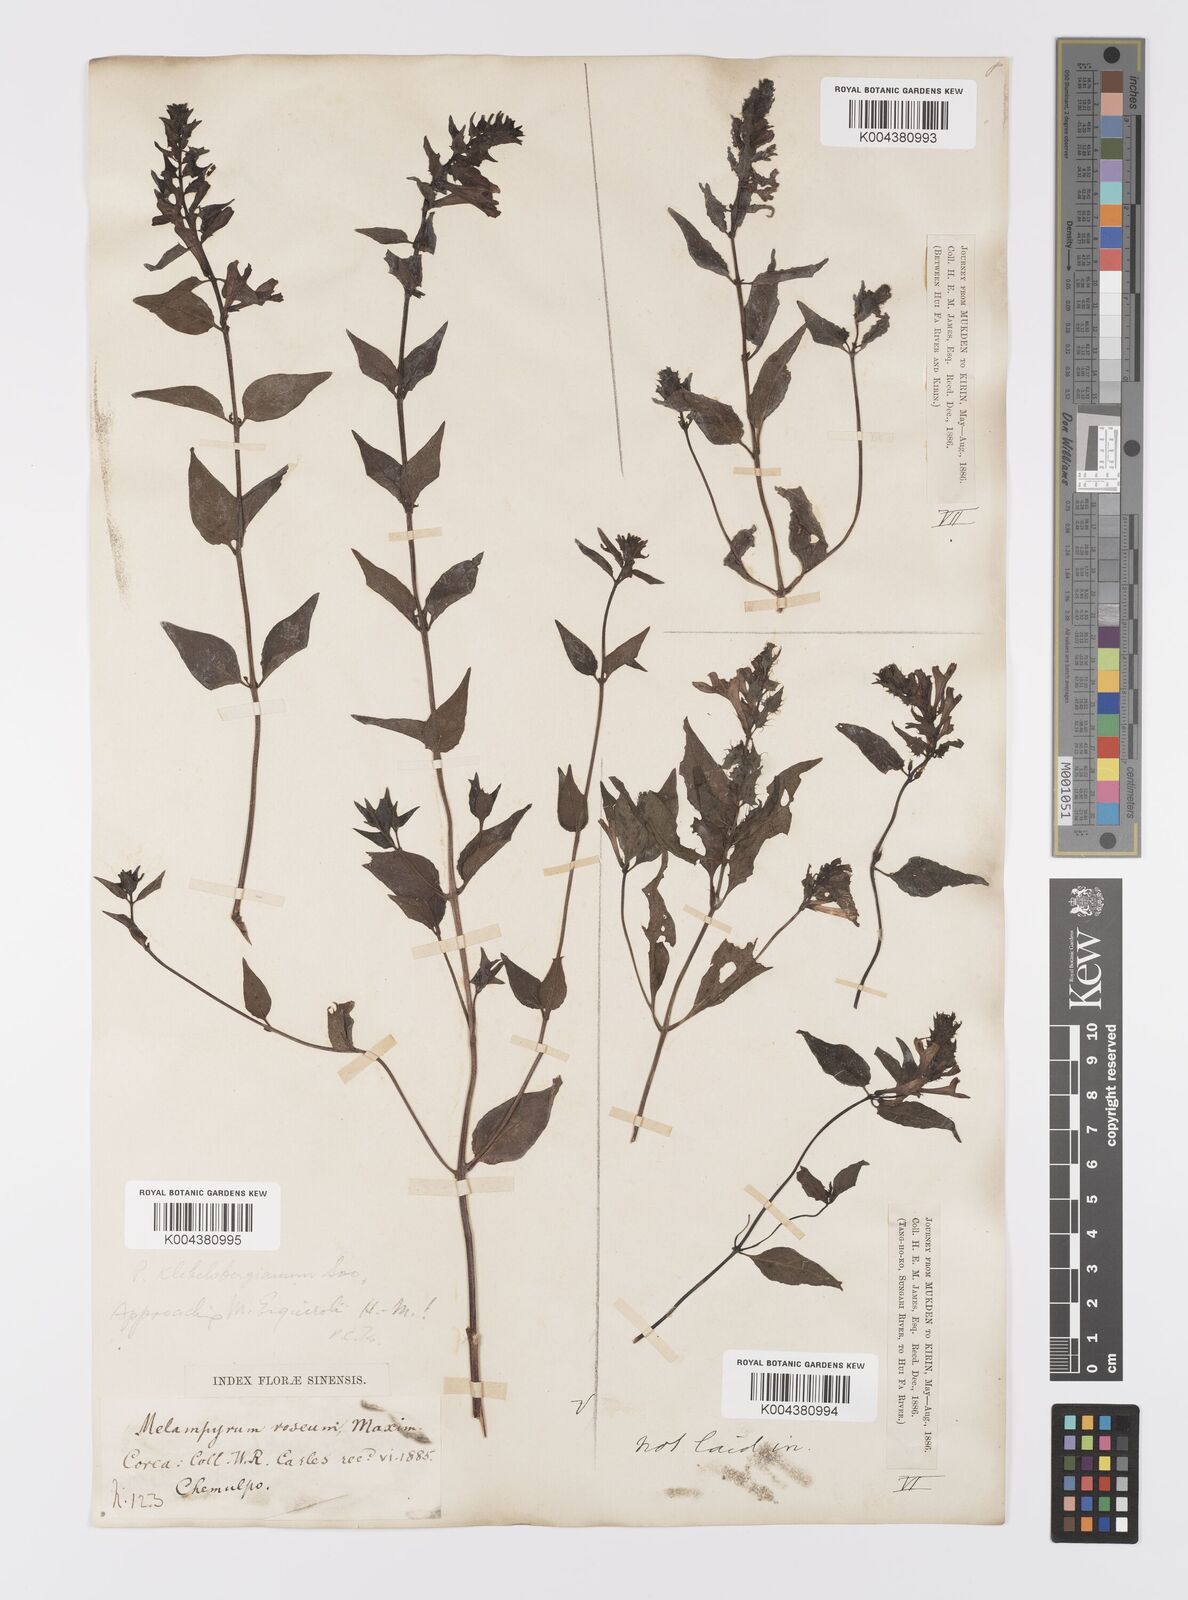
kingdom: Plantae
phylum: Tracheophyta
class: Magnoliopsida
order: Lamiales
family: Orobanchaceae
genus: Melampyrum
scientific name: Melampyrum roseum
